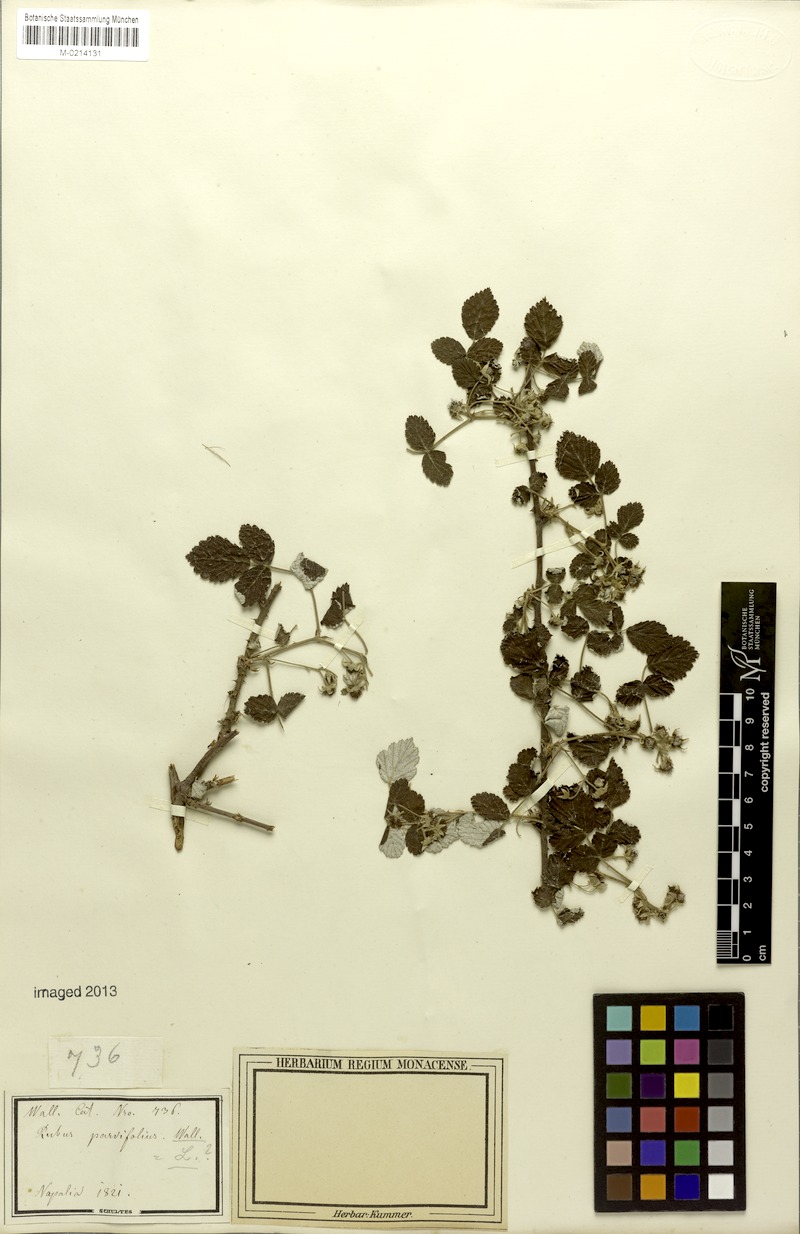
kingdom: Plantae
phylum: Tracheophyta
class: Magnoliopsida
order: Rosales
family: Rosaceae
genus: Rubus
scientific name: Rubus parvifolius
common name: Threeleaf blackberry
